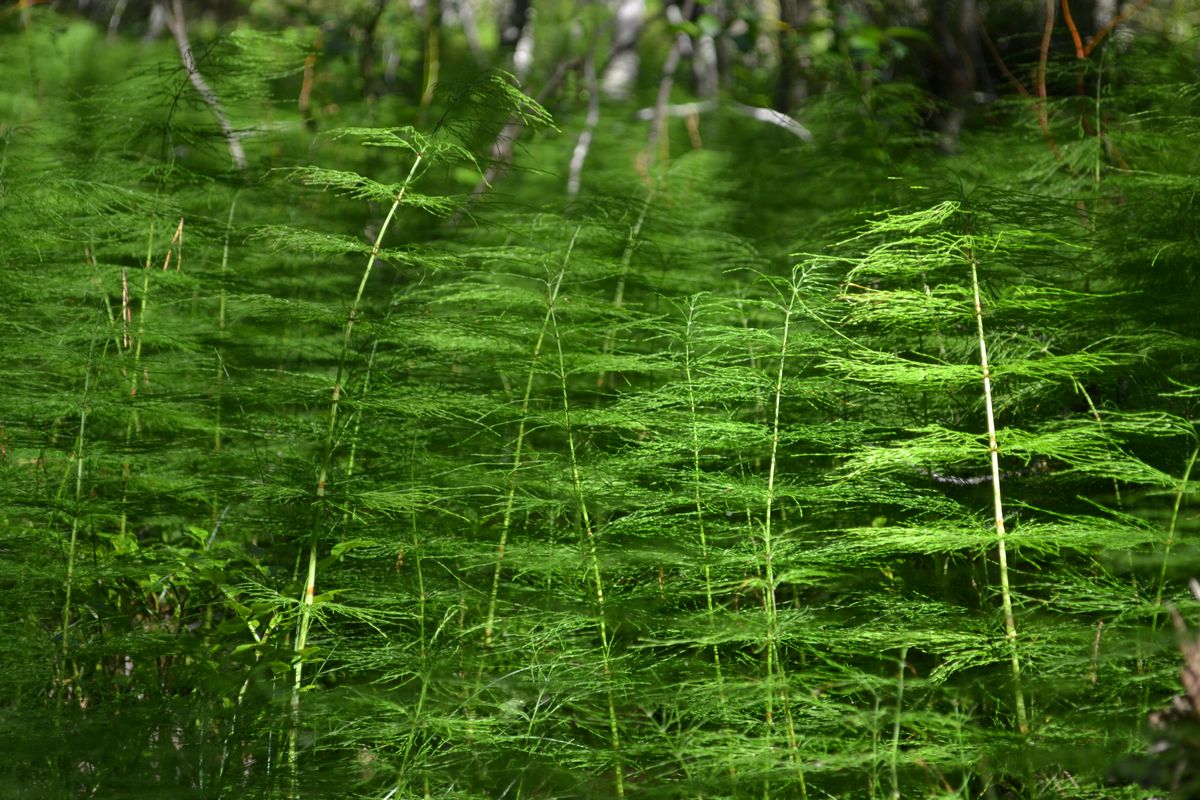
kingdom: Plantae
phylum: Tracheophyta
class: Polypodiopsida
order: Equisetales
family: Equisetaceae
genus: Equisetum
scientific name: Equisetum sylvaticum
